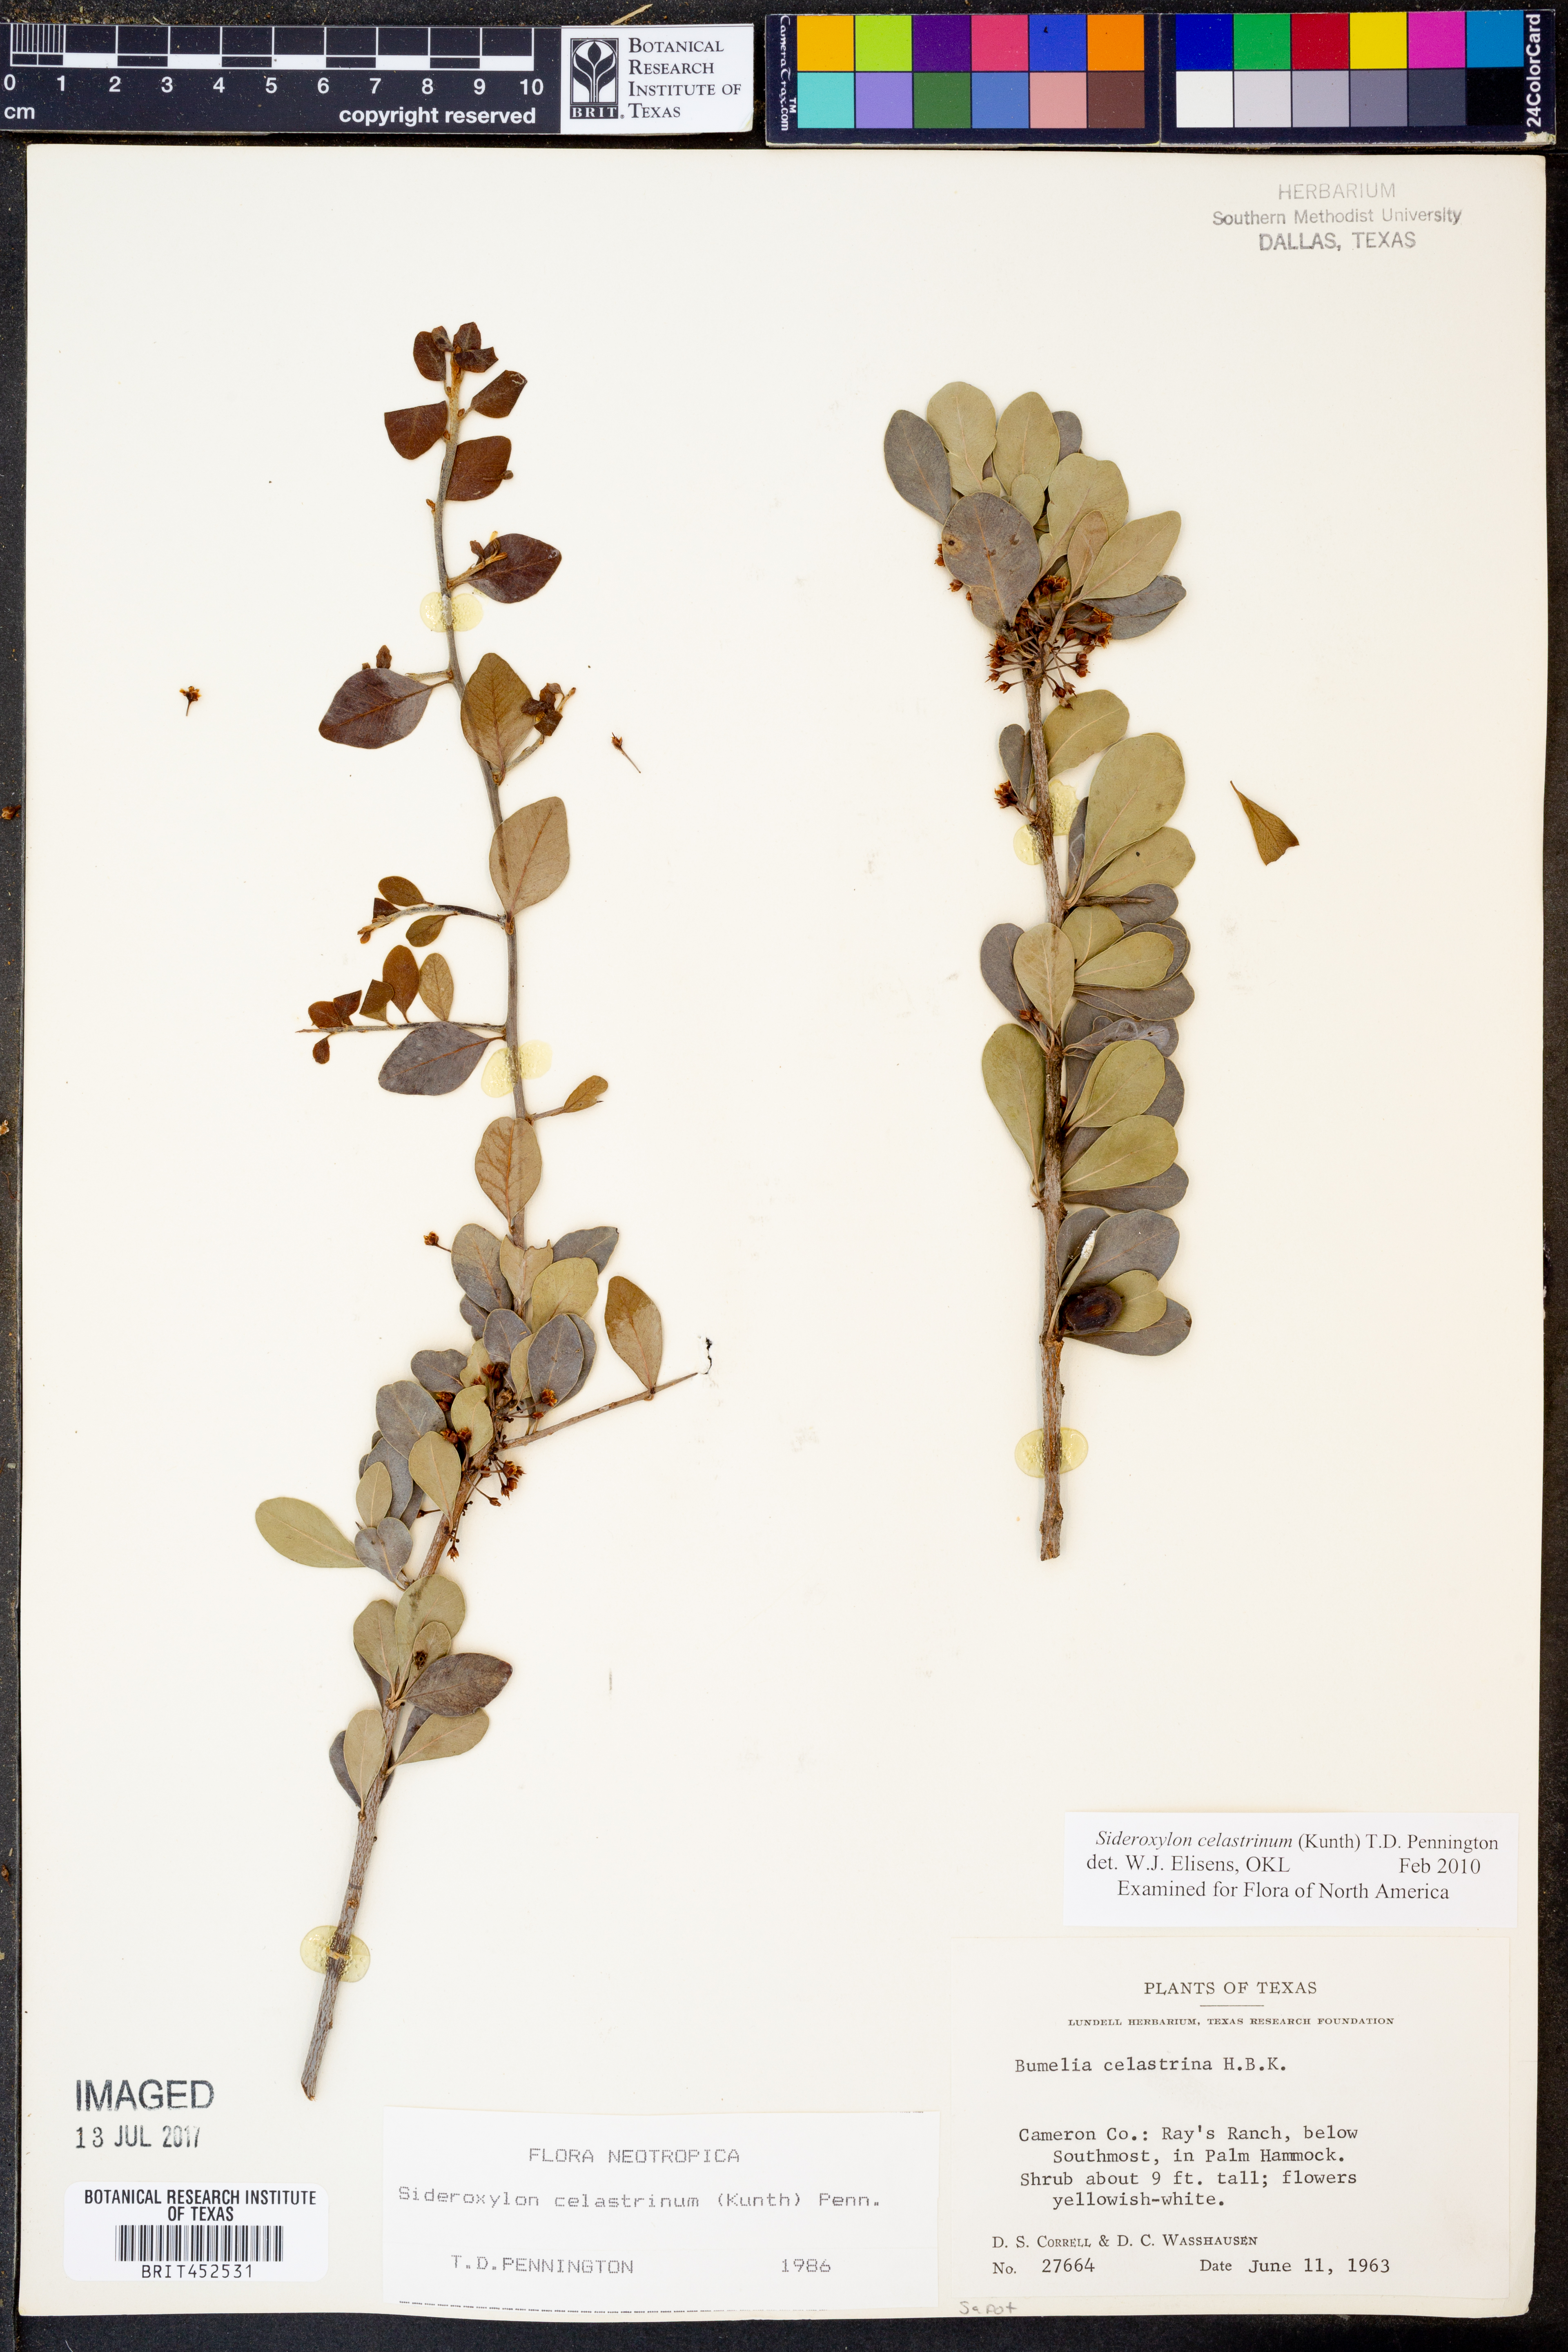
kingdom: Plantae
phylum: Tracheophyta
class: Magnoliopsida
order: Ericales
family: Sapotaceae
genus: Sideroxylon
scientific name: Sideroxylon celastrinum
